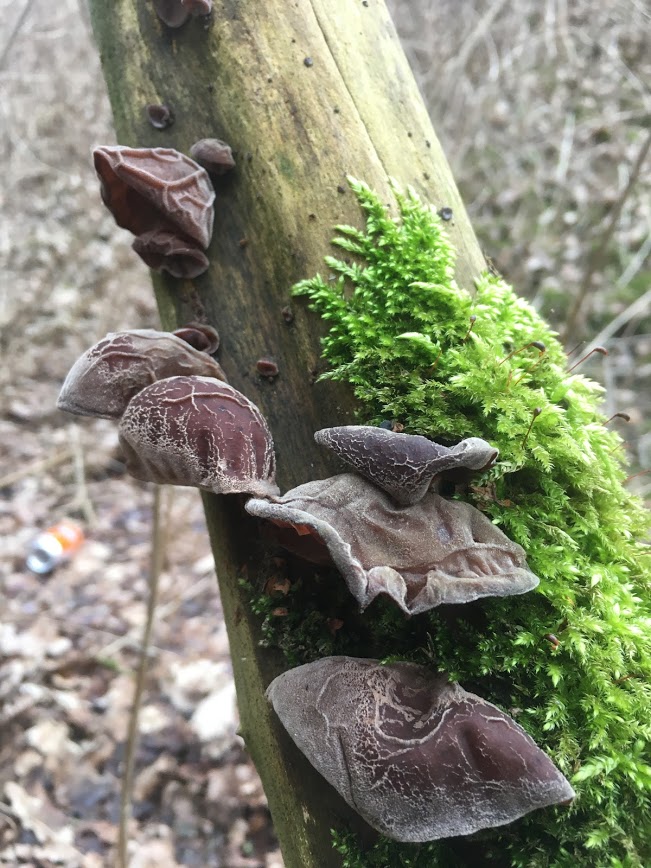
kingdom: Fungi
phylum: Basidiomycota
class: Agaricomycetes
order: Auriculariales
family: Auriculariaceae
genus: Auricularia
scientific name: Auricularia auricula-judae
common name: almindelig judasøre
